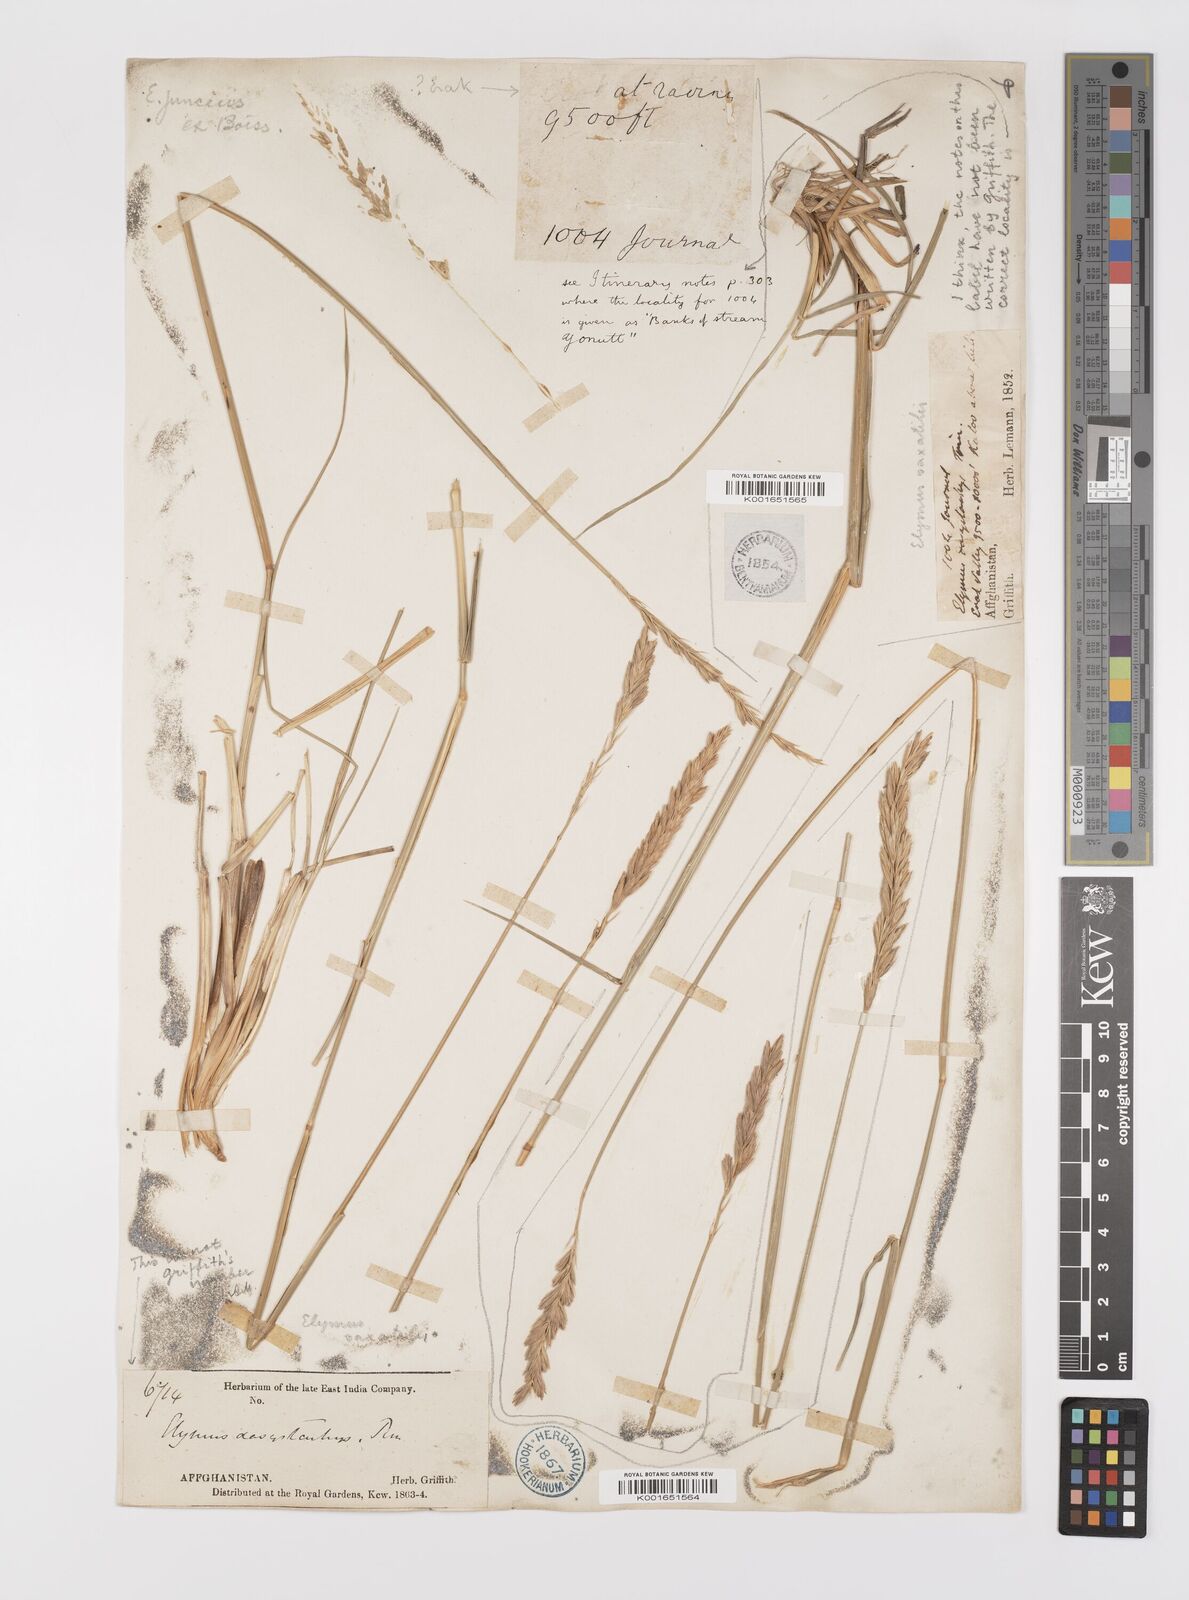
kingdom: Plantae
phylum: Tracheophyta
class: Liliopsida
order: Poales
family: Poaceae
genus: Leymus
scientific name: Leymus
